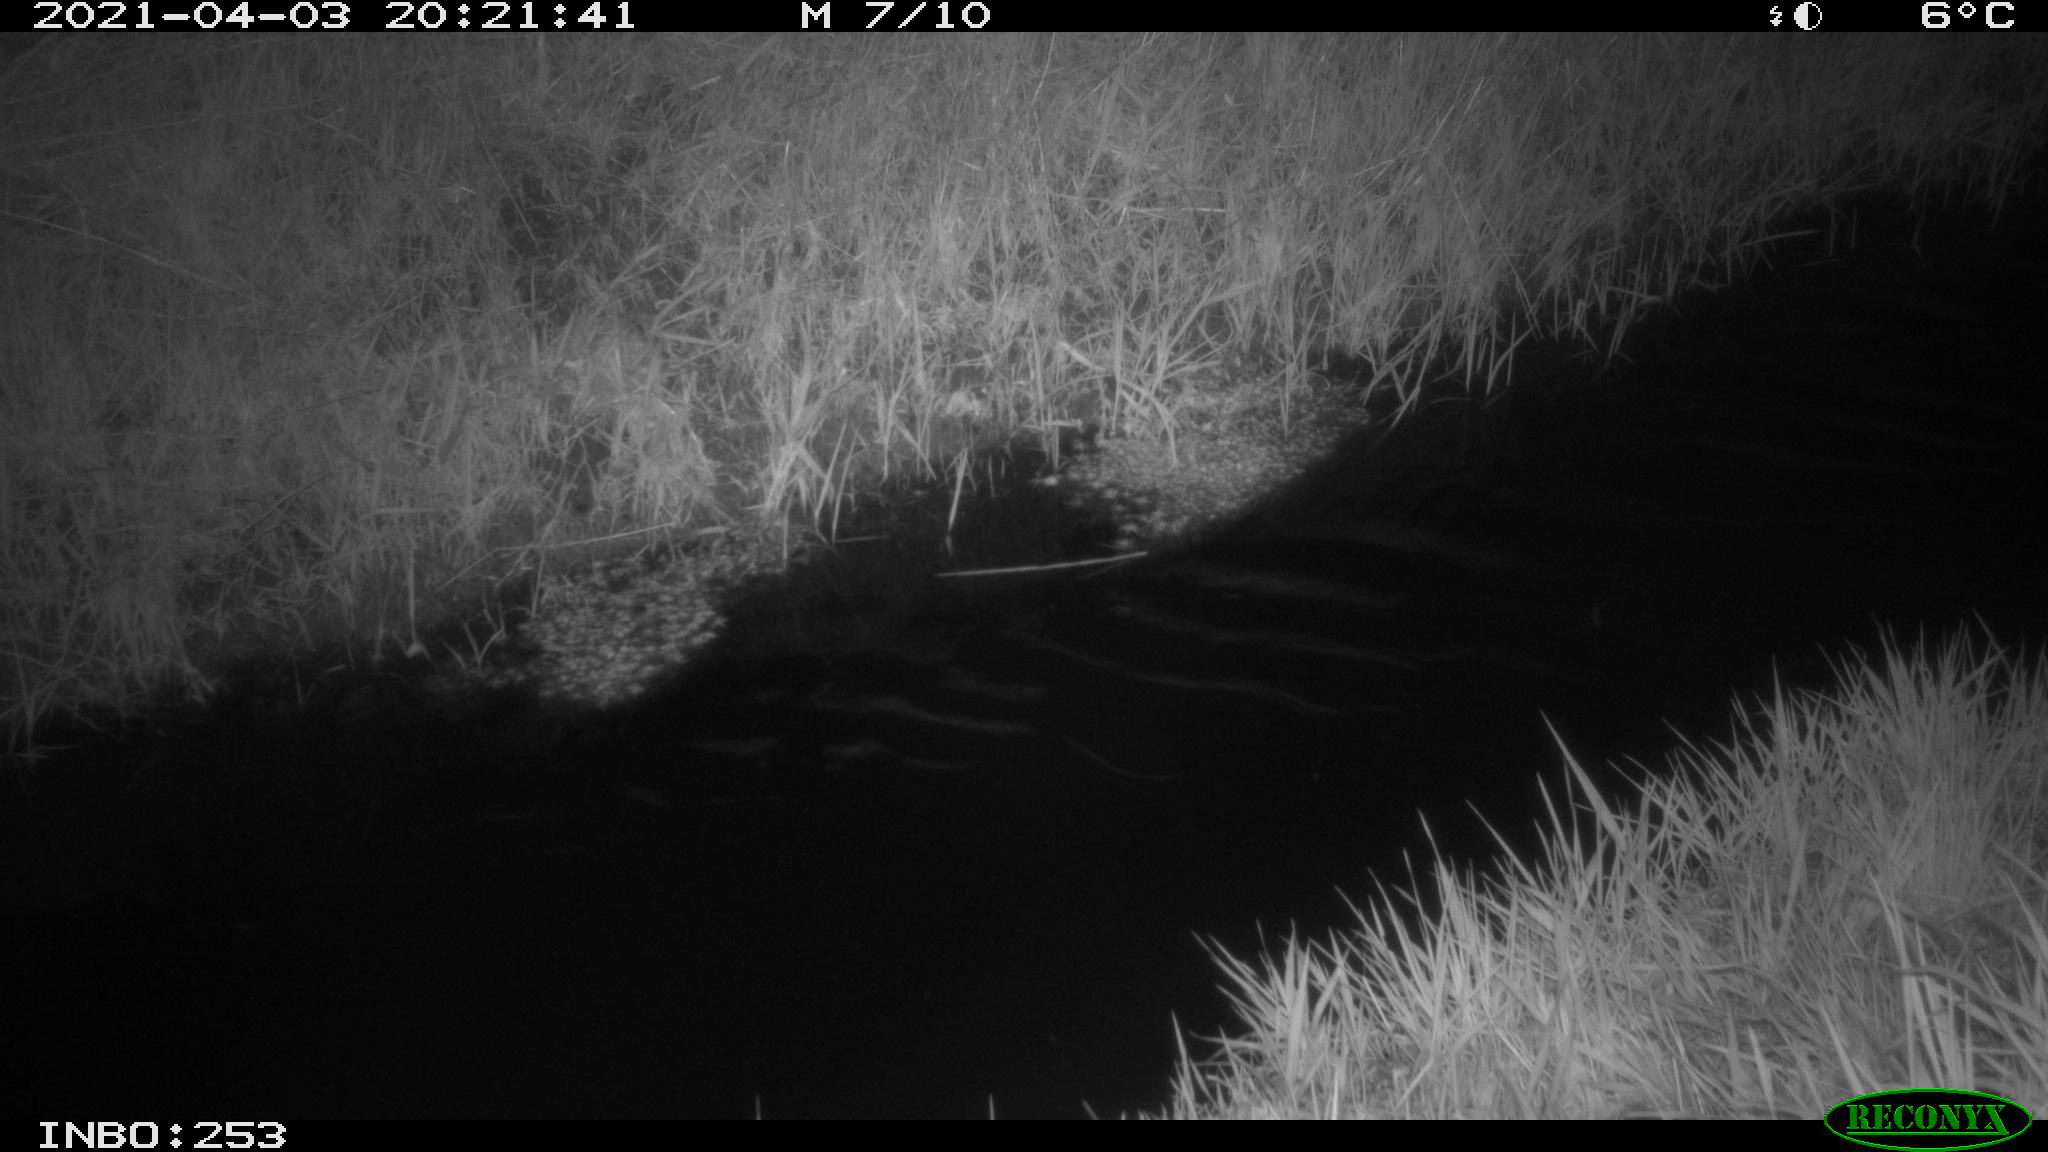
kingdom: Animalia
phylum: Chordata
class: Aves
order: Anseriformes
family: Anatidae
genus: Anas
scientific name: Anas platyrhynchos
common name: Mallard
